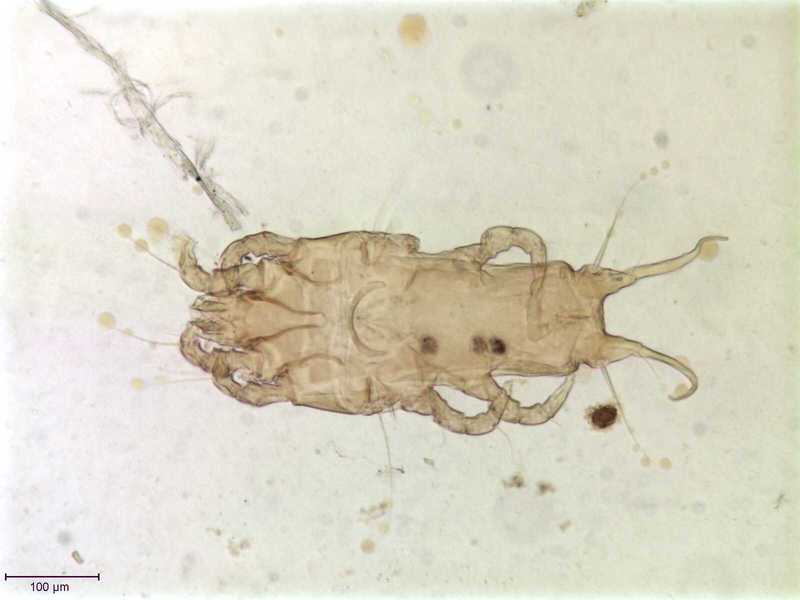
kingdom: Animalia
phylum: Arthropoda
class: Arachnida
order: Sarcoptiformes
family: Proctophyllodidae
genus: Proctophyllodes
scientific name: Proctophyllodes musicus
